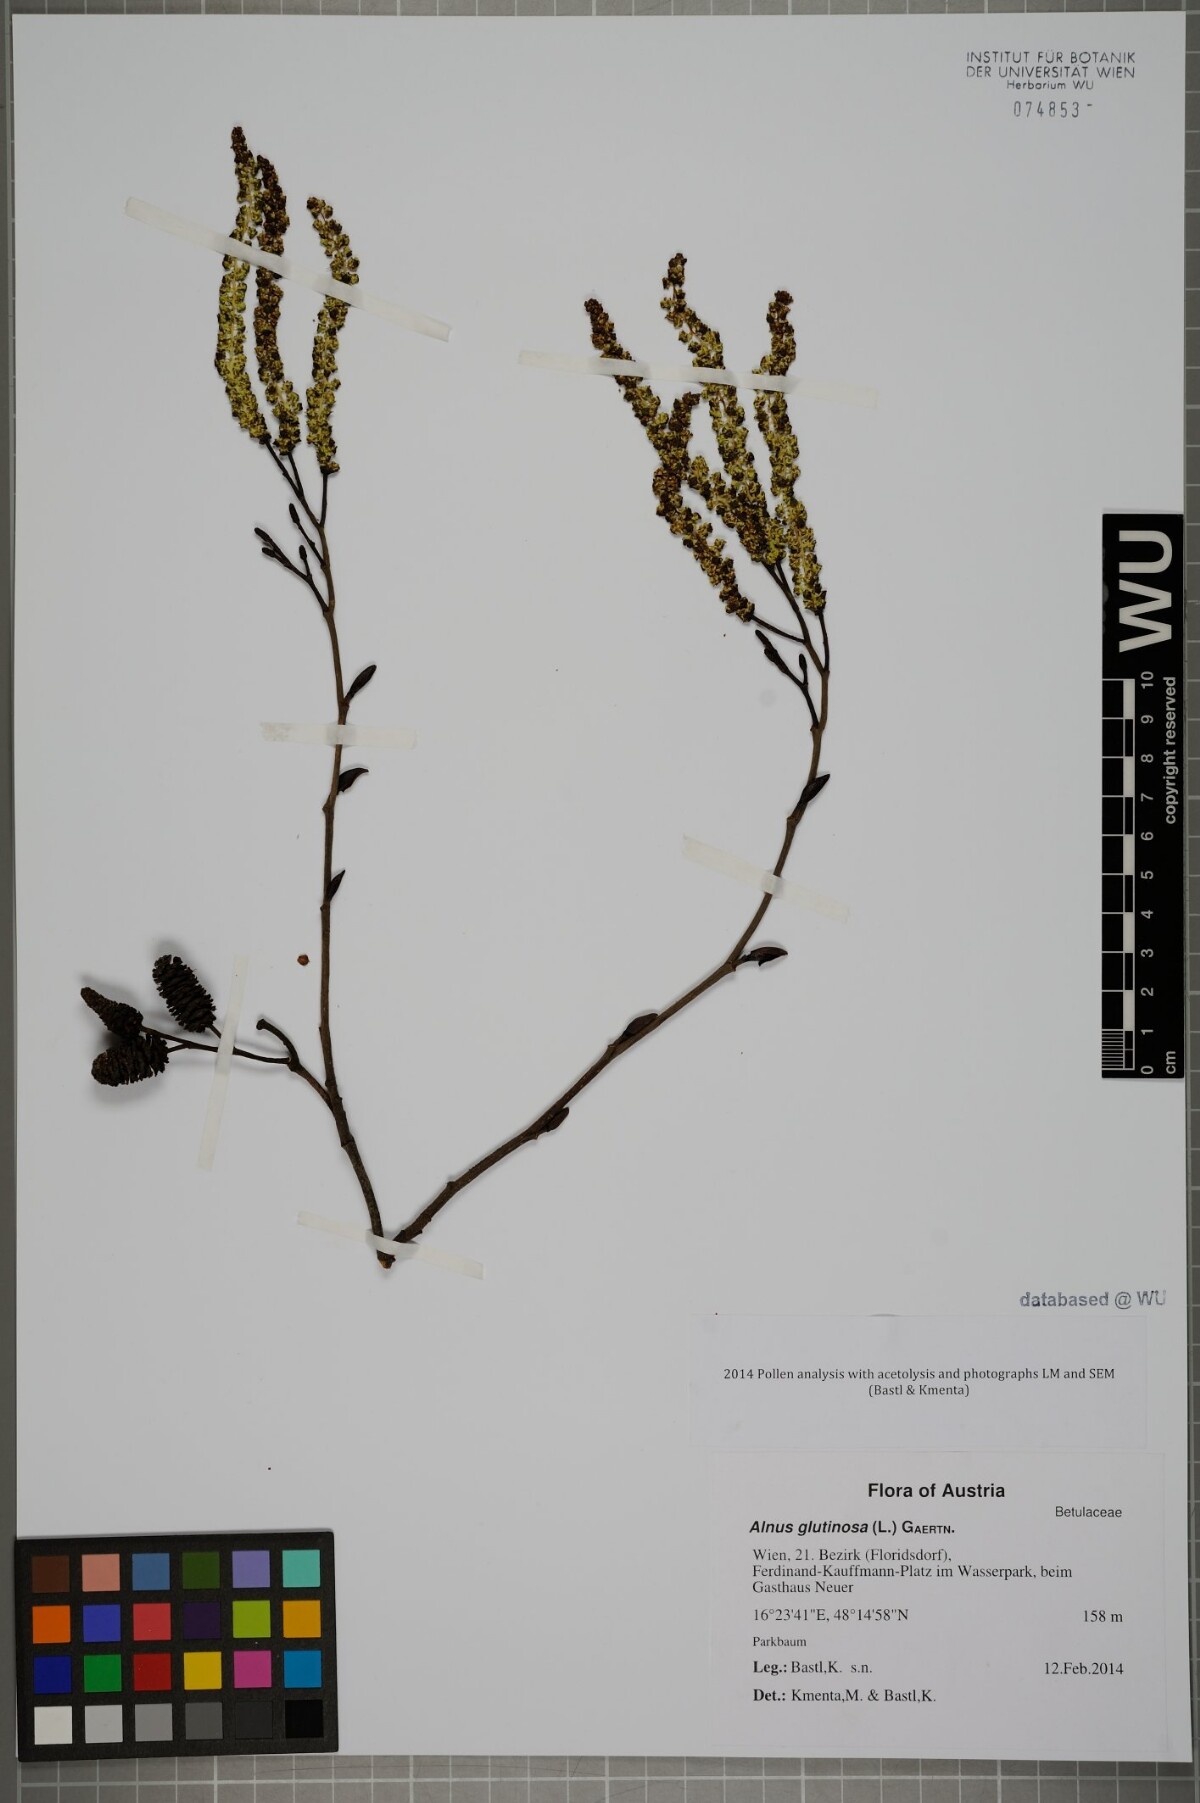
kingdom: Plantae
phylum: Tracheophyta
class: Magnoliopsida
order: Fagales
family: Betulaceae
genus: Alnus
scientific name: Alnus glutinosa
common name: Black alder
